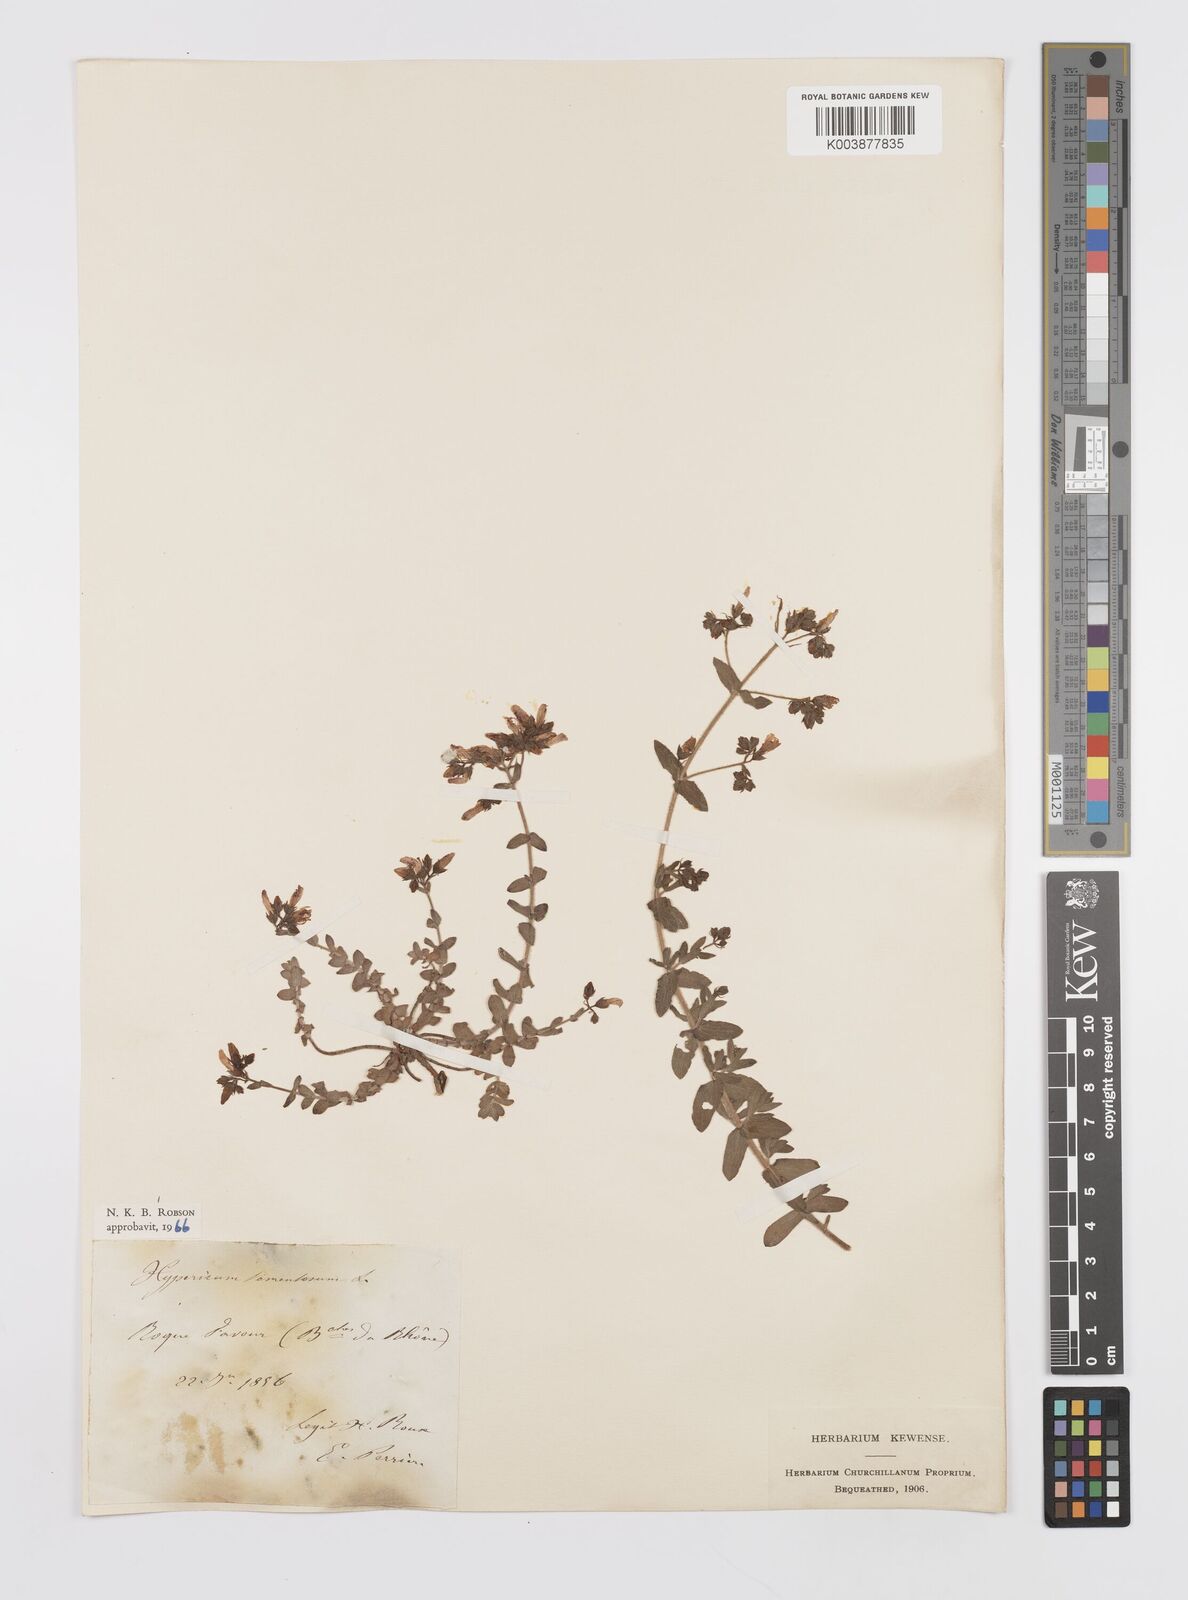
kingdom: Plantae
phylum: Tracheophyta
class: Magnoliopsida
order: Malpighiales
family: Hypericaceae
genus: Hypericum
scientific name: Hypericum tomentosum
